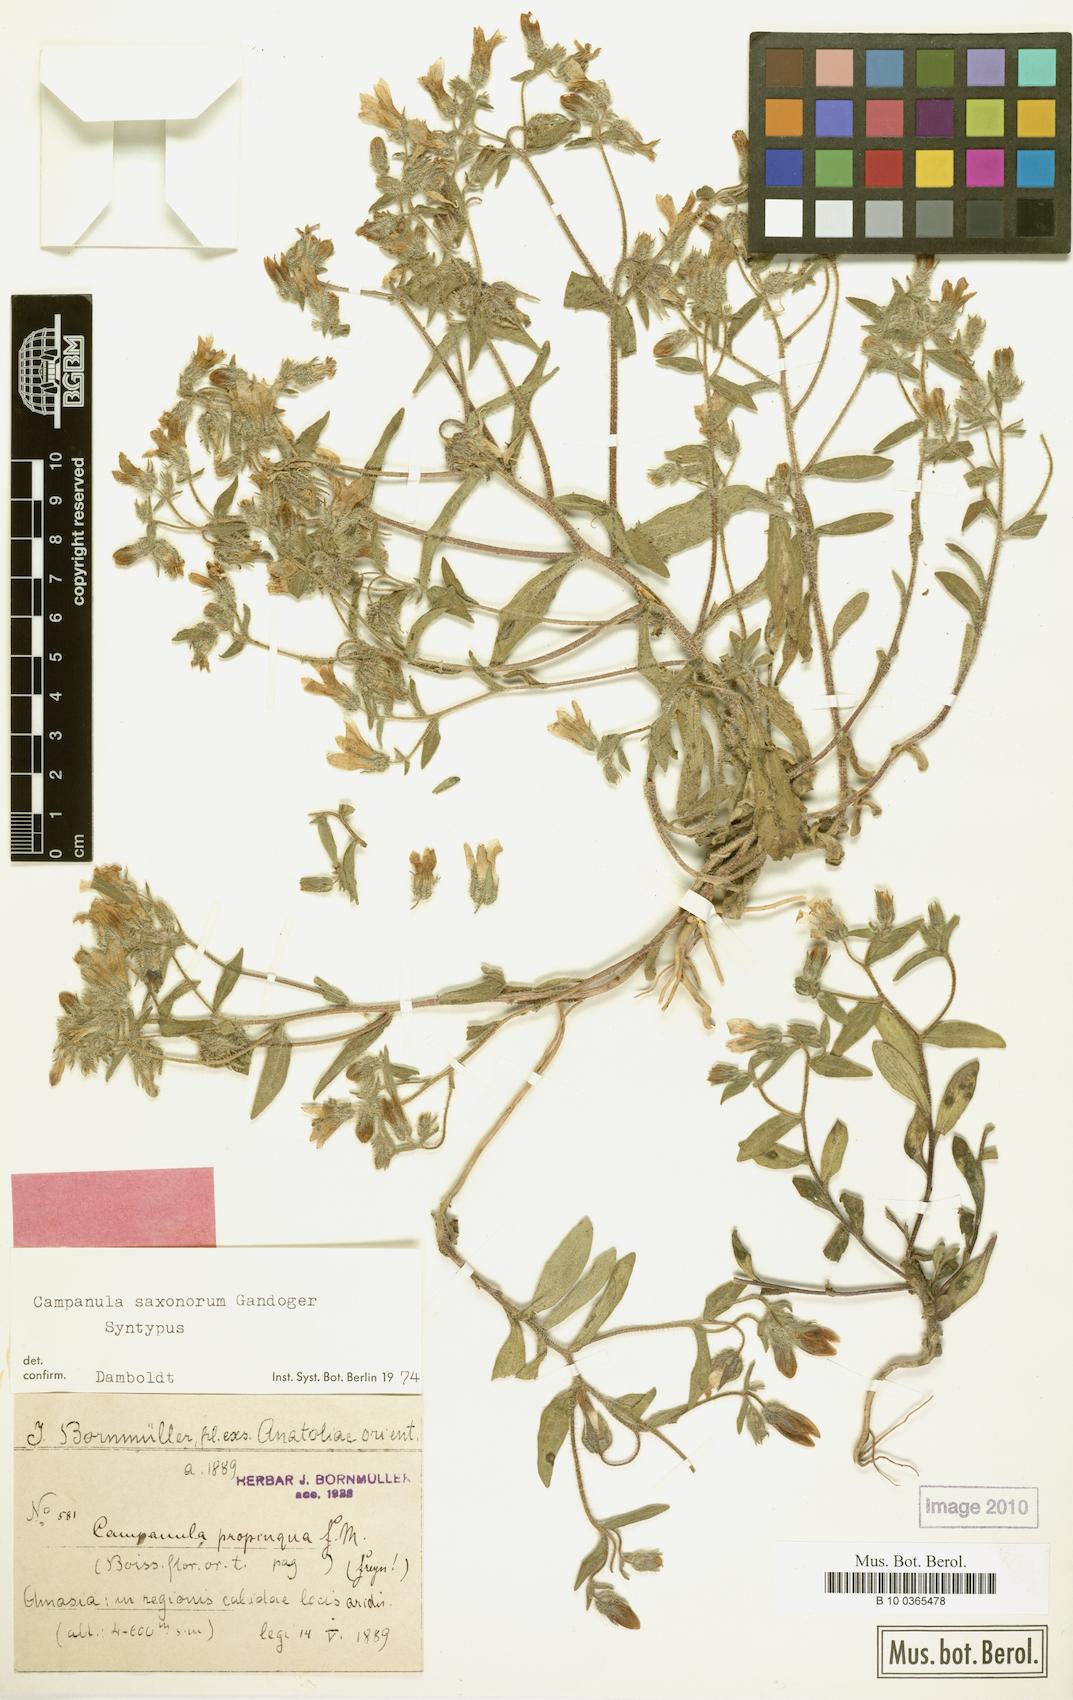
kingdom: Plantae
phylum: Tracheophyta
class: Magnoliopsida
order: Asterales
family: Campanulaceae
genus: Campanula
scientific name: Campanula saxonorum
